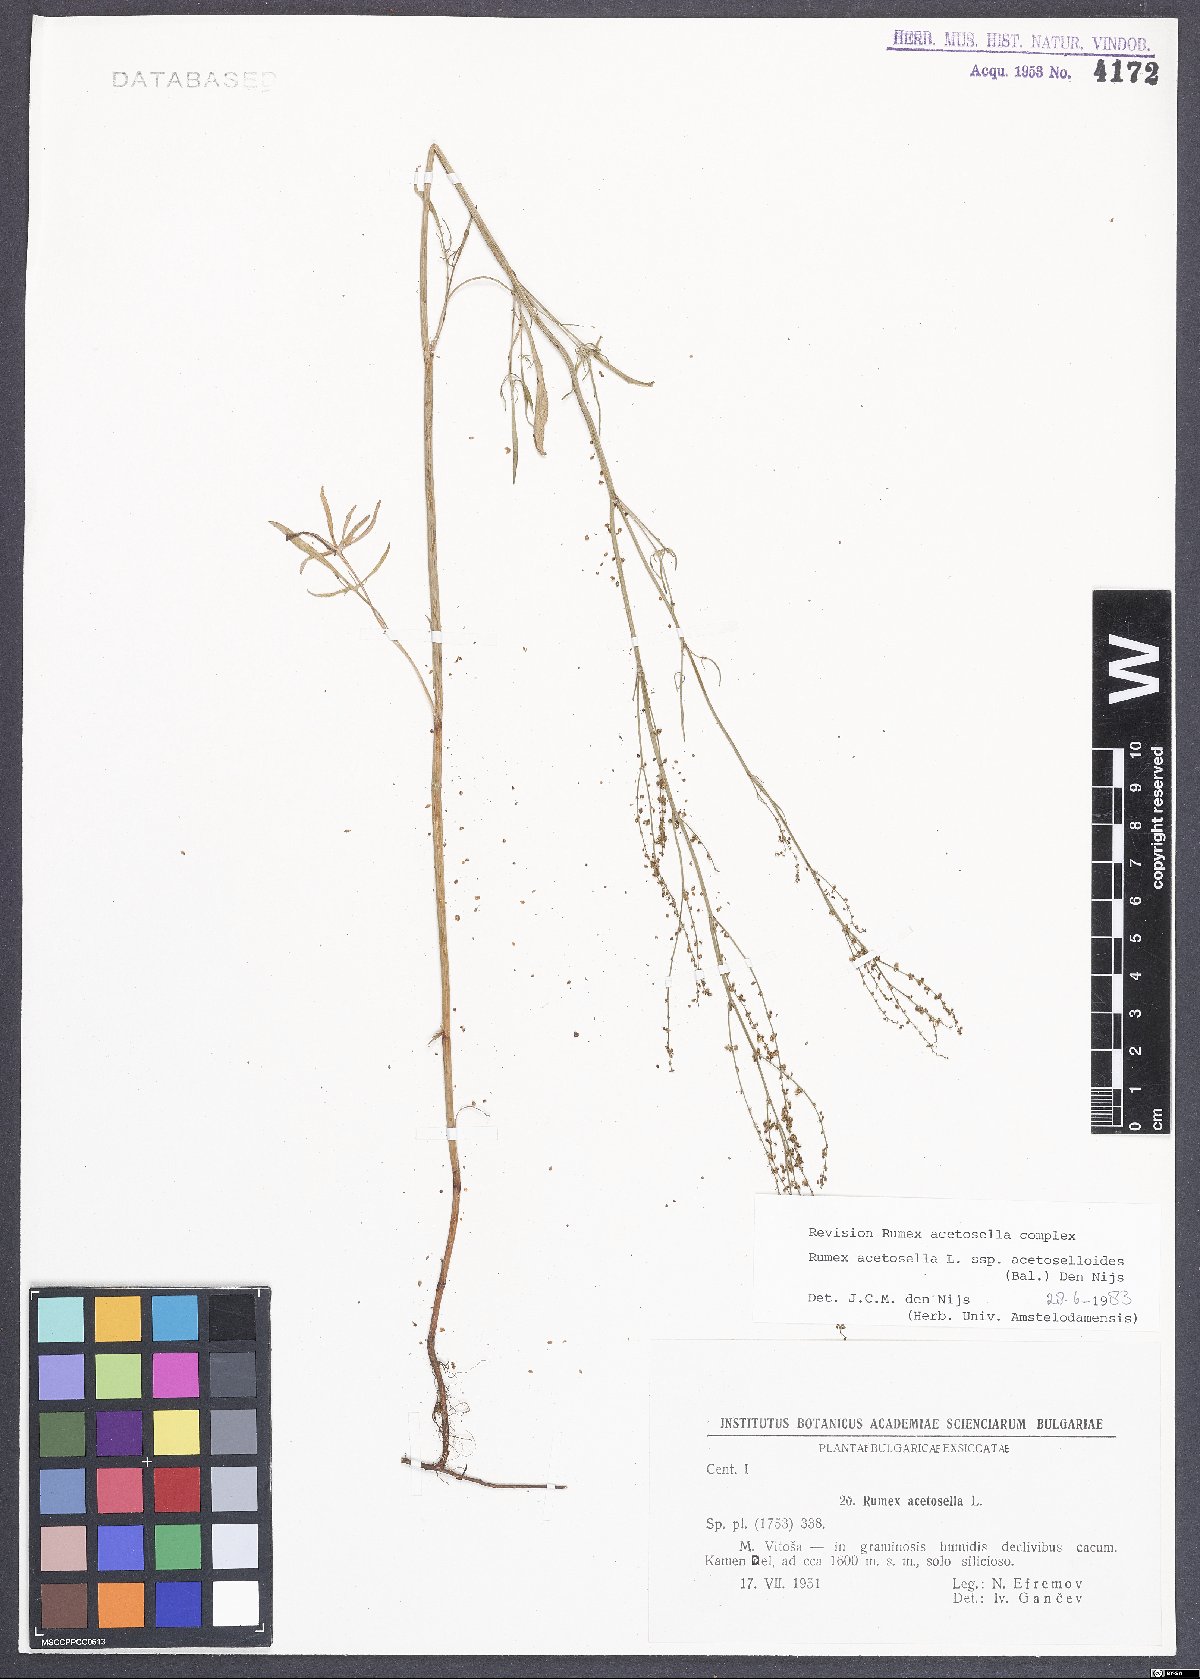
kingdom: Plantae
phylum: Tracheophyta
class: Magnoliopsida
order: Caryophyllales
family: Polygonaceae
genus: Rumex
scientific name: Rumex acetosella
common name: Common sheep sorrel
